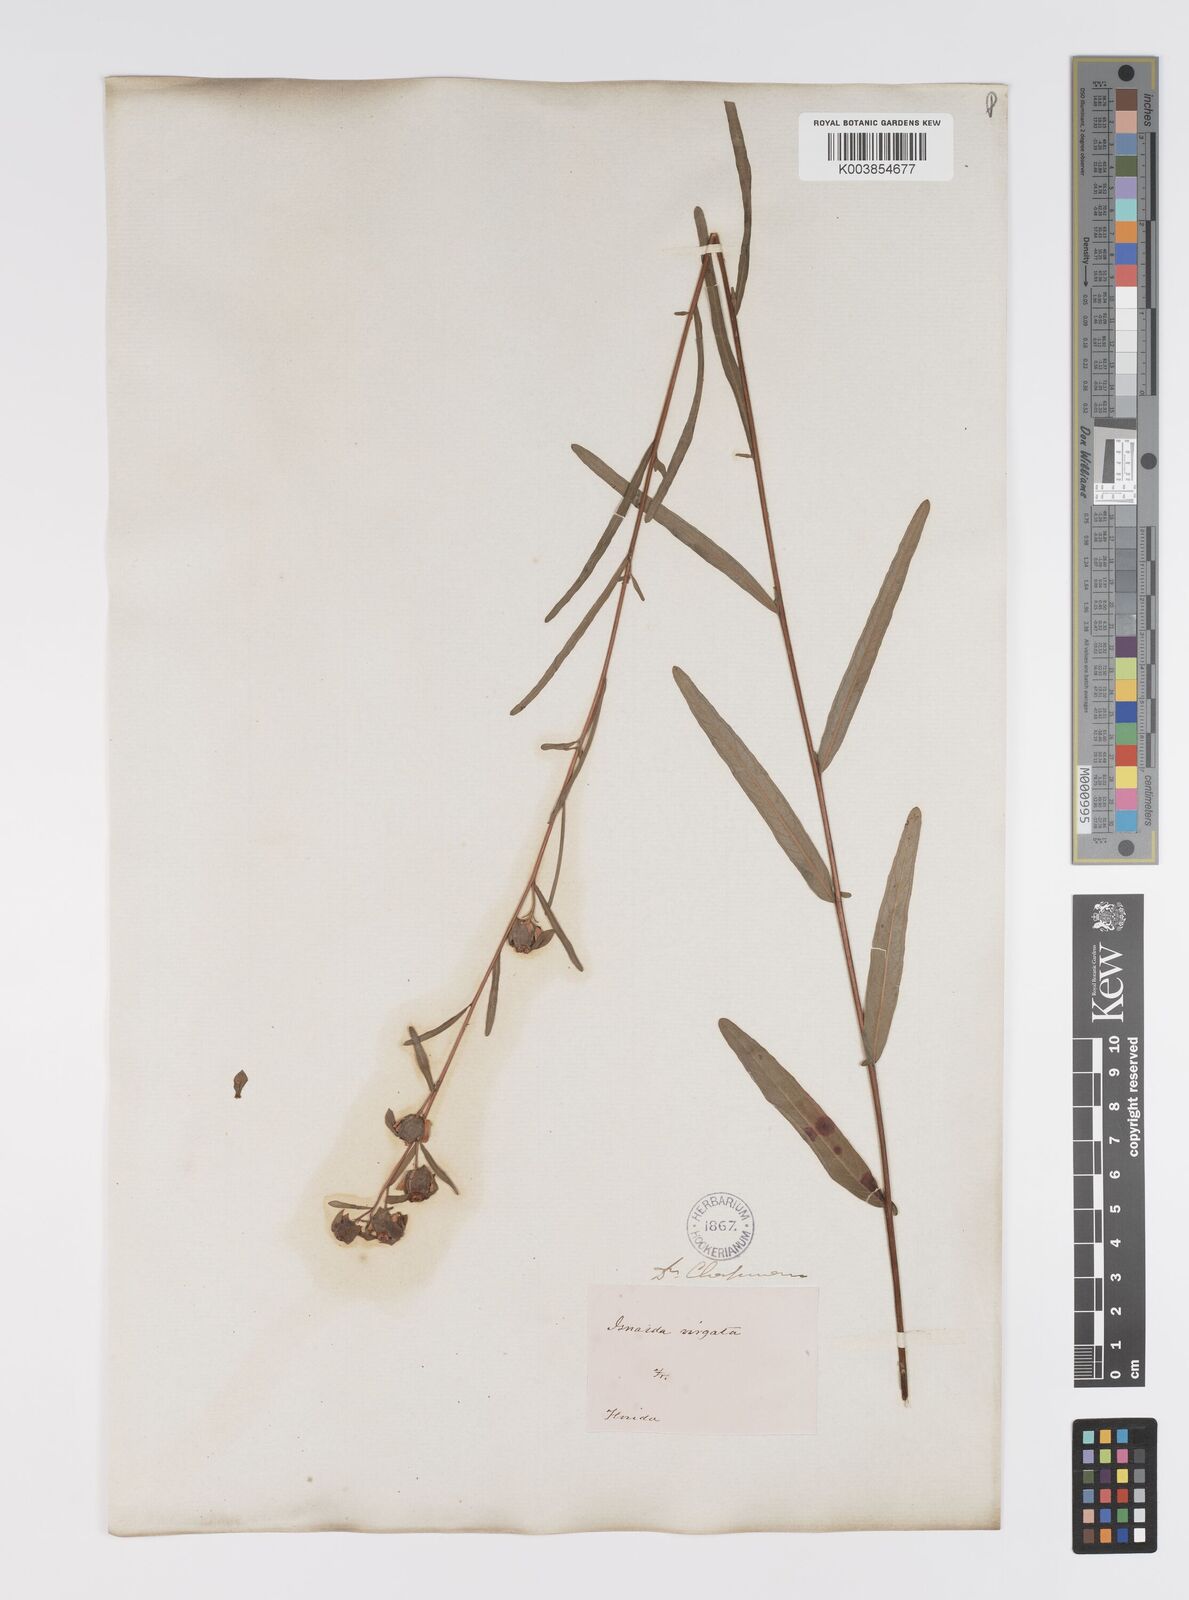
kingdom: Plantae
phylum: Tracheophyta
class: Magnoliopsida
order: Myrtales
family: Onagraceae
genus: Ludwigia
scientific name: Ludwigia virgata
